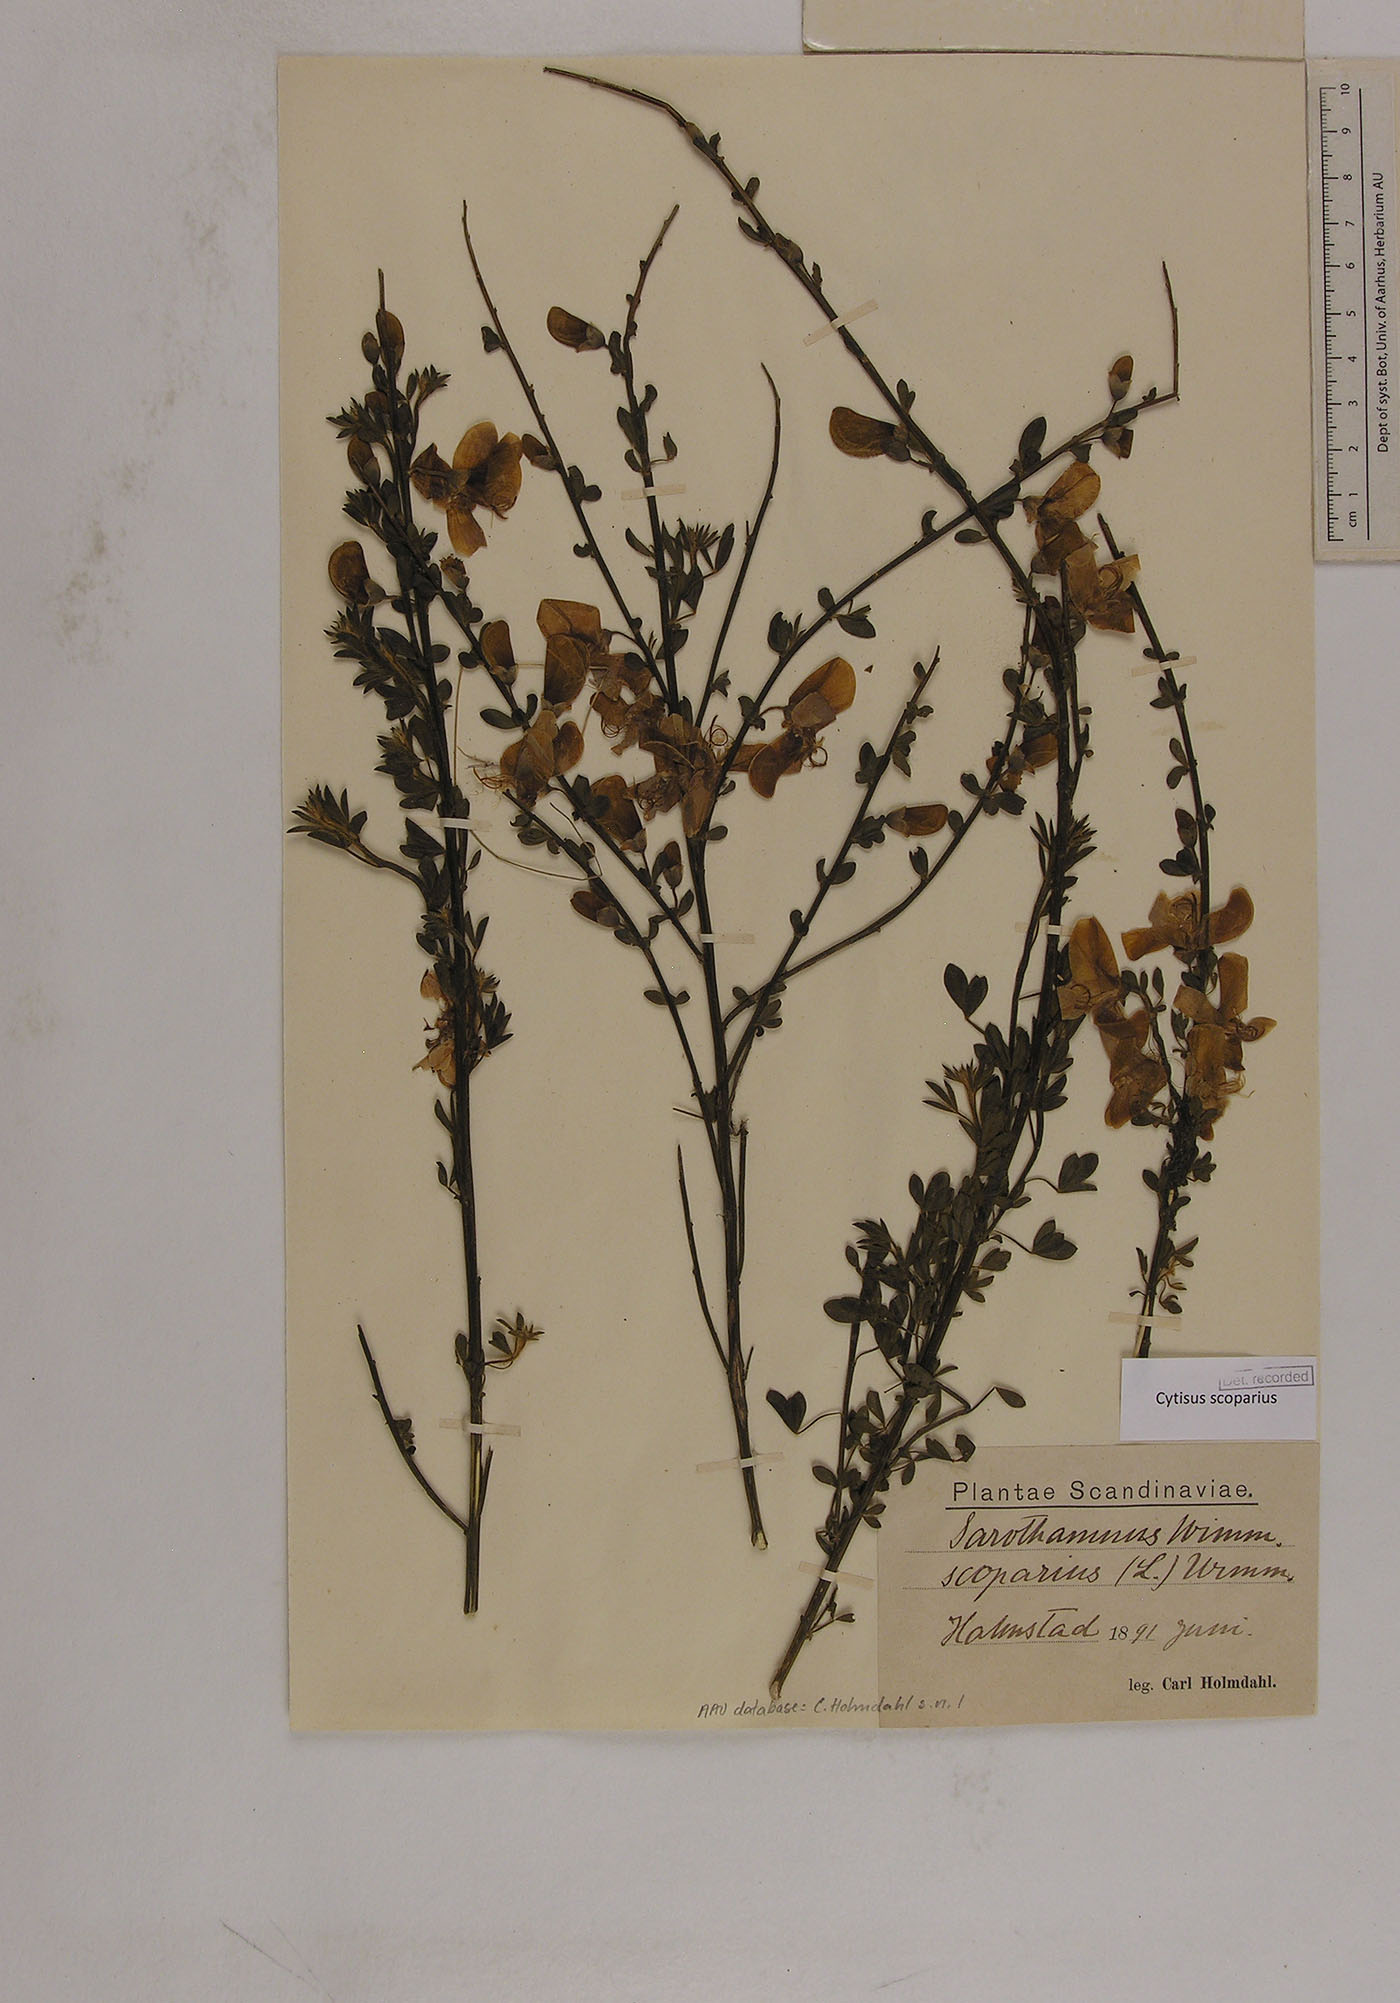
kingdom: Plantae
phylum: Tracheophyta
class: Magnoliopsida
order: Fabales
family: Fabaceae
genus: Cytisus
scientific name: Cytisus scoparius
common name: Scotch broom
